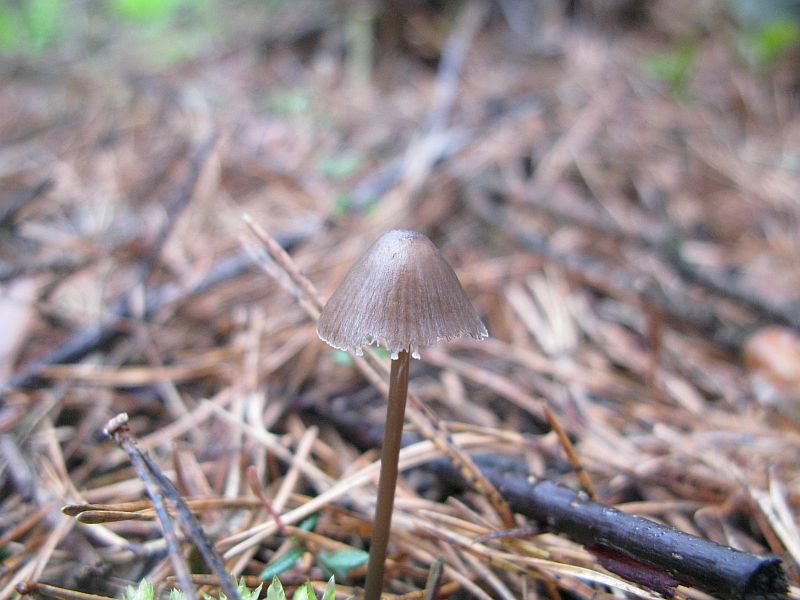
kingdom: Fungi
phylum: Basidiomycota
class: Agaricomycetes
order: Agaricales
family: Mycenaceae
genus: Mycena
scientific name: Mycena abramsii
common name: sommer-huesvamp
